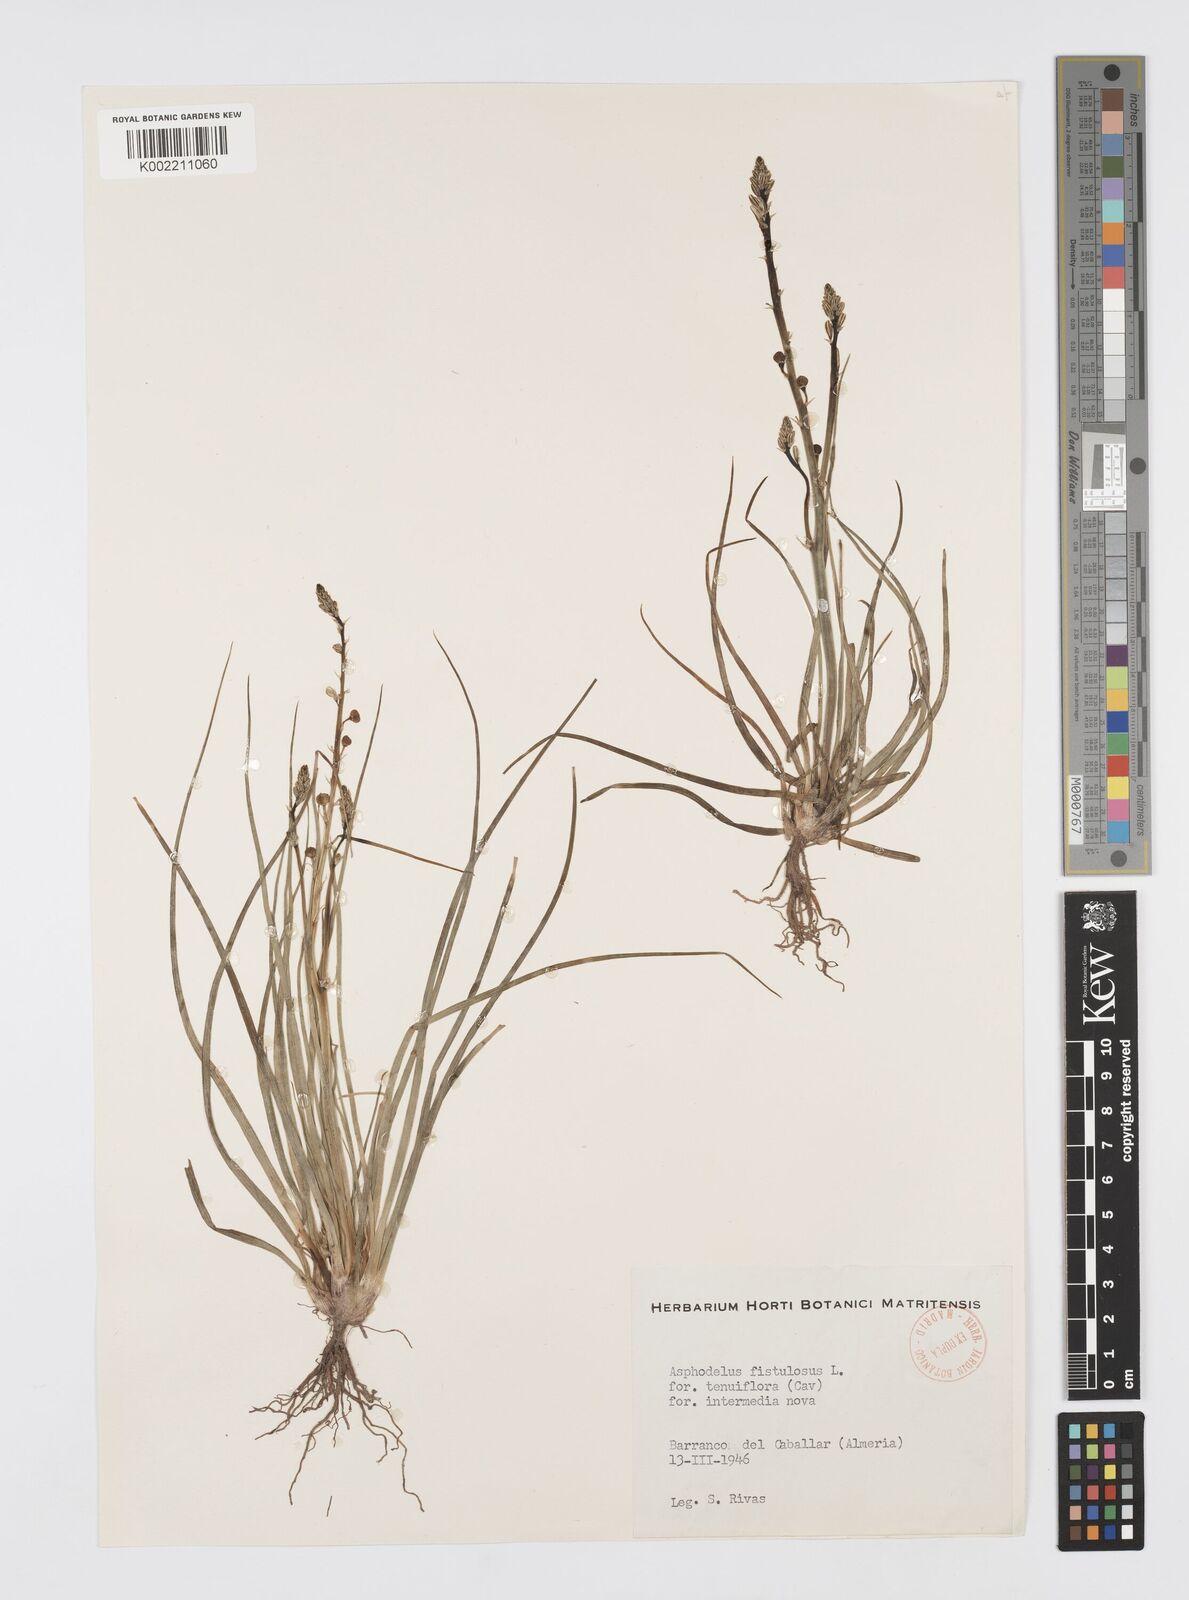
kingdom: Plantae
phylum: Tracheophyta
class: Liliopsida
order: Asparagales
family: Asphodelaceae
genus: Asphodelus
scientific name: Asphodelus tenuifolius
